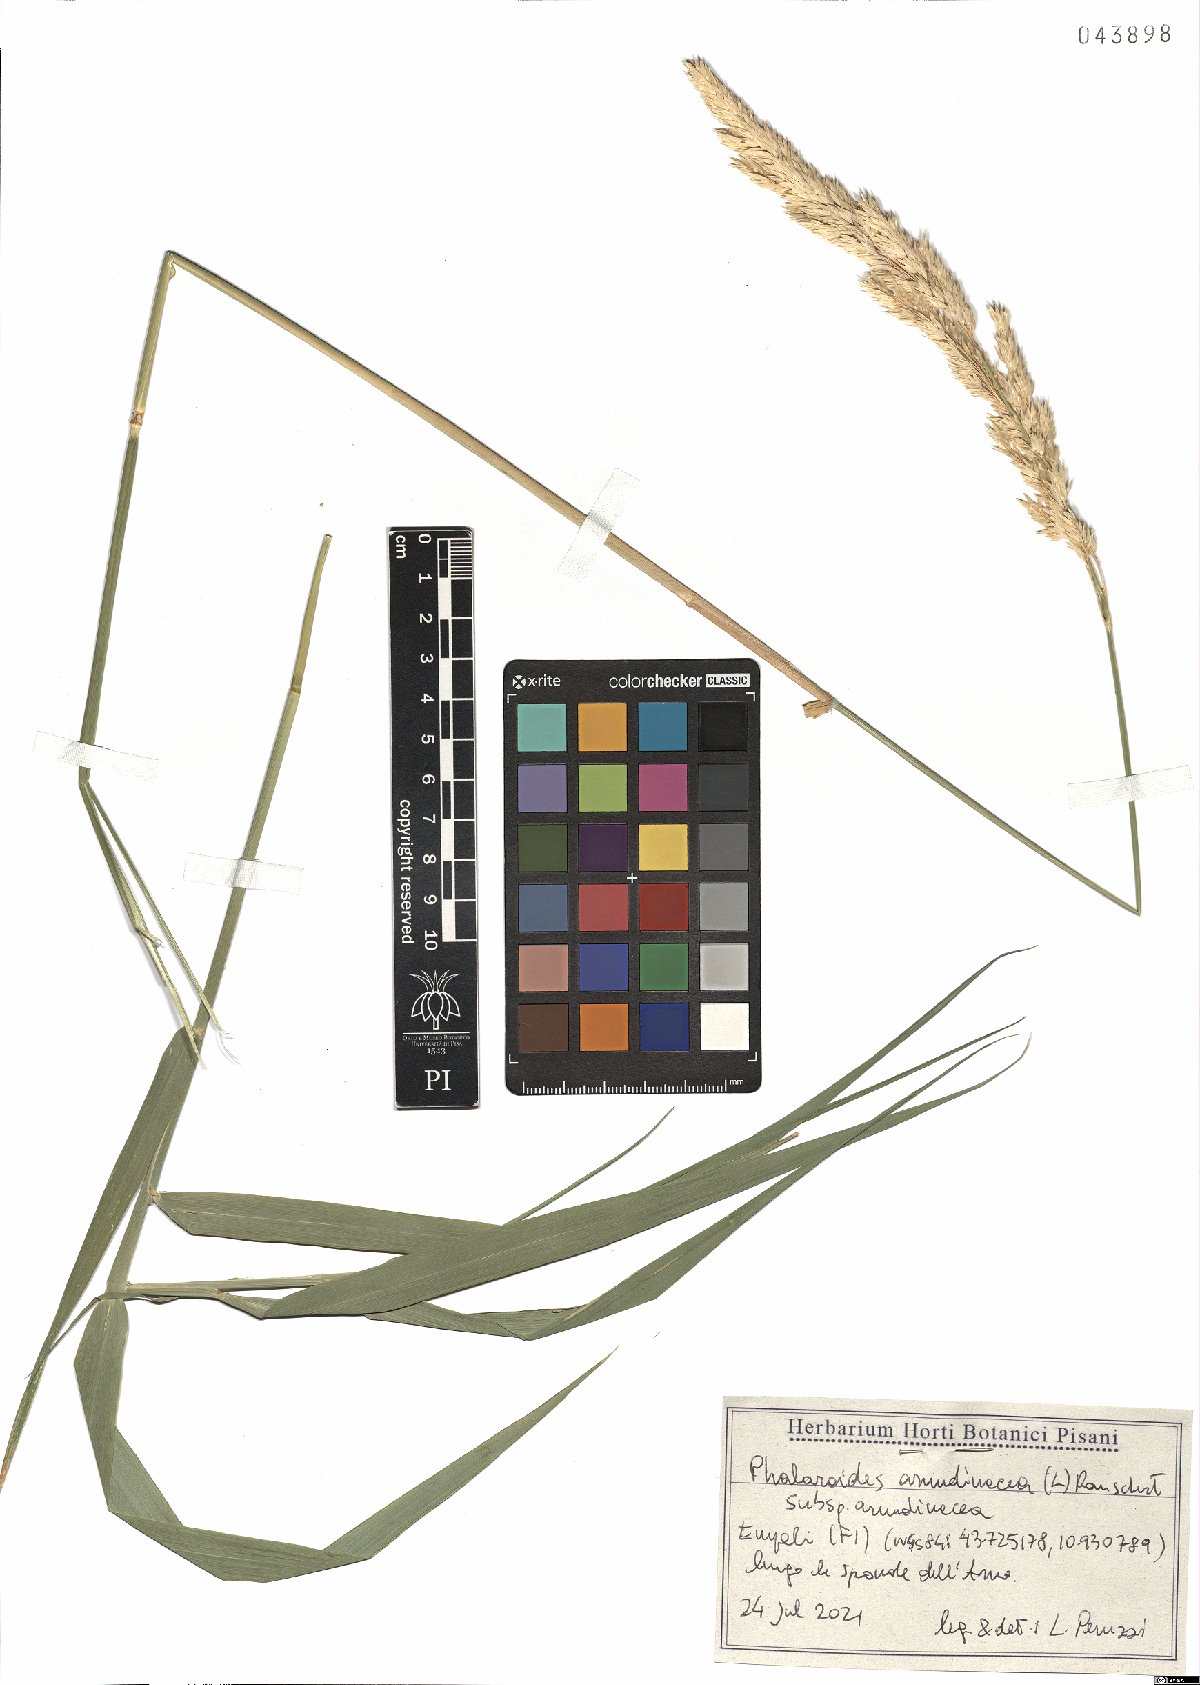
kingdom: Plantae
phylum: Tracheophyta
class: Liliopsida
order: Poales
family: Poaceae
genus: Phalaris
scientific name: Phalaris arundinacea
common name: Reed canary-grass
